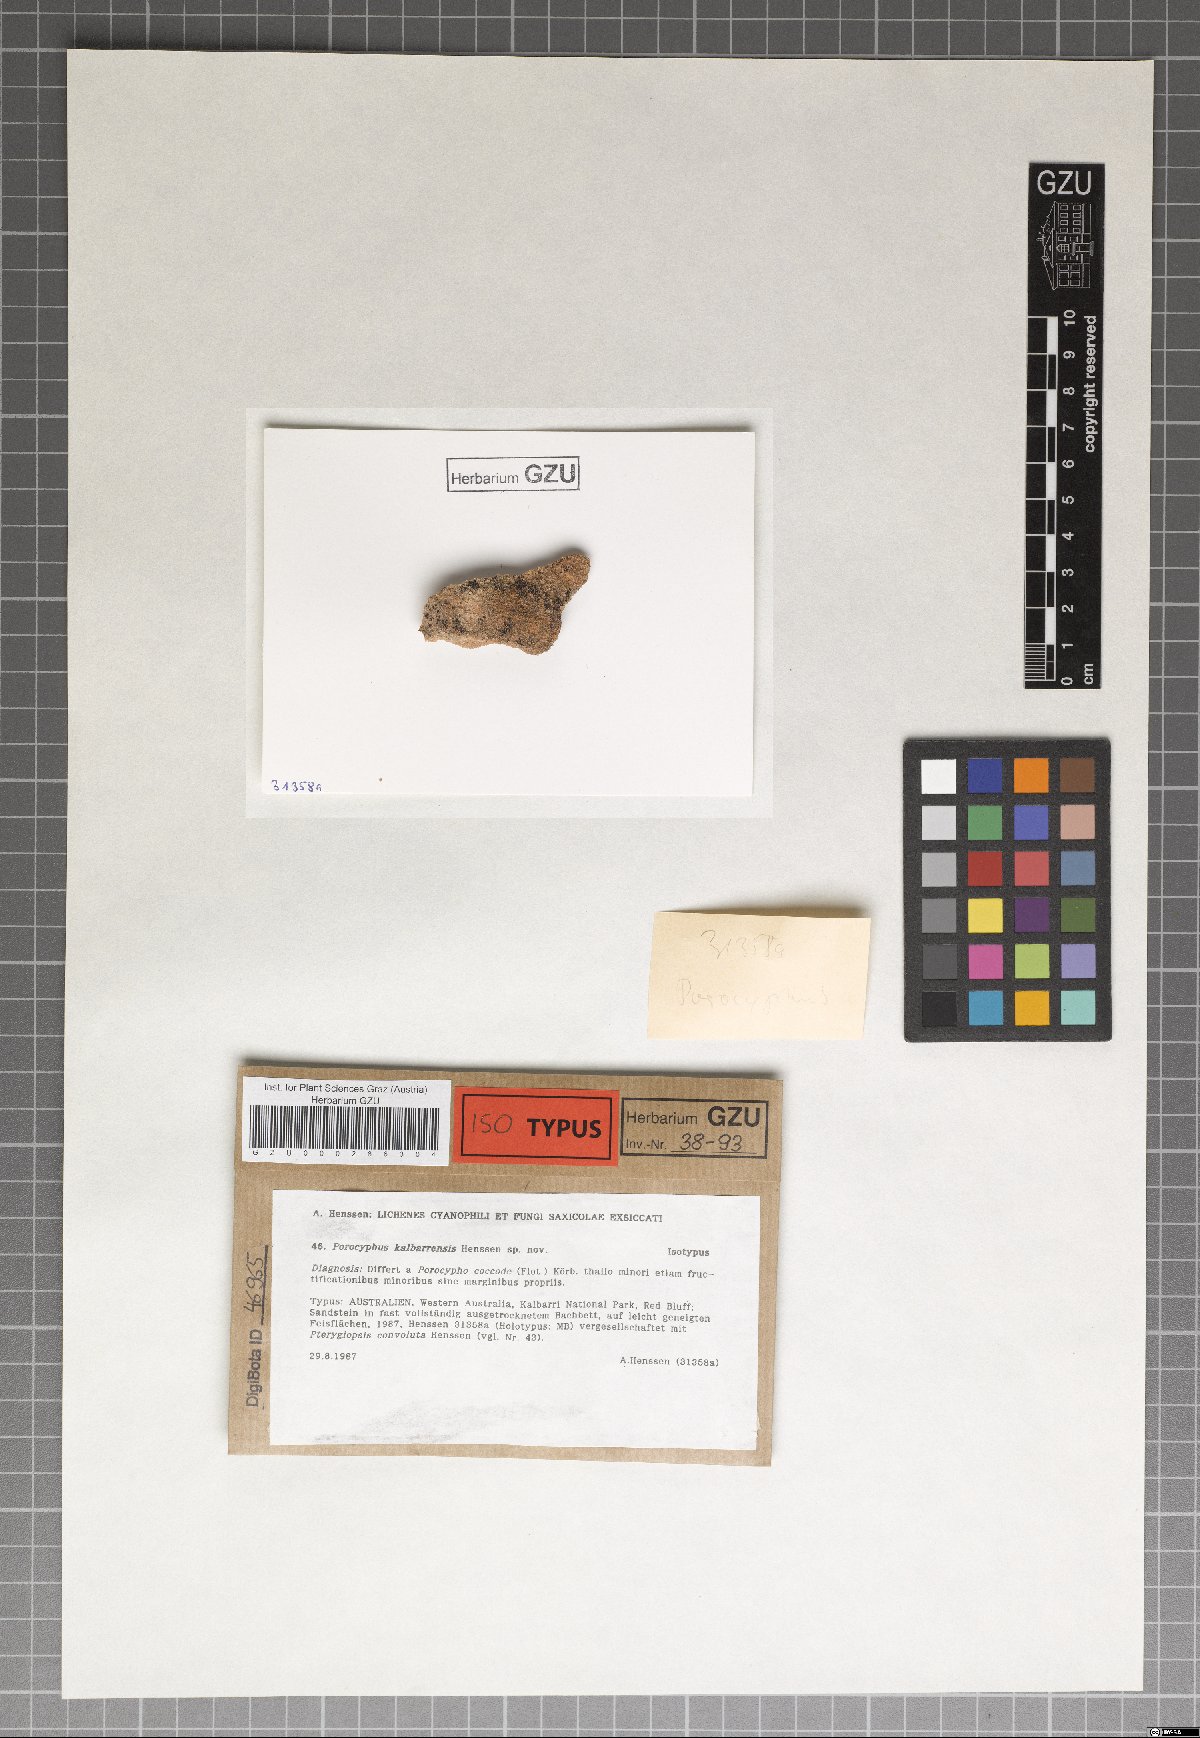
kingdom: Fungi
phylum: Ascomycota
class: Lichinomycetes
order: Lichinales
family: Lichinaceae
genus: Porocyphus
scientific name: Porocyphus kalbarriensis
